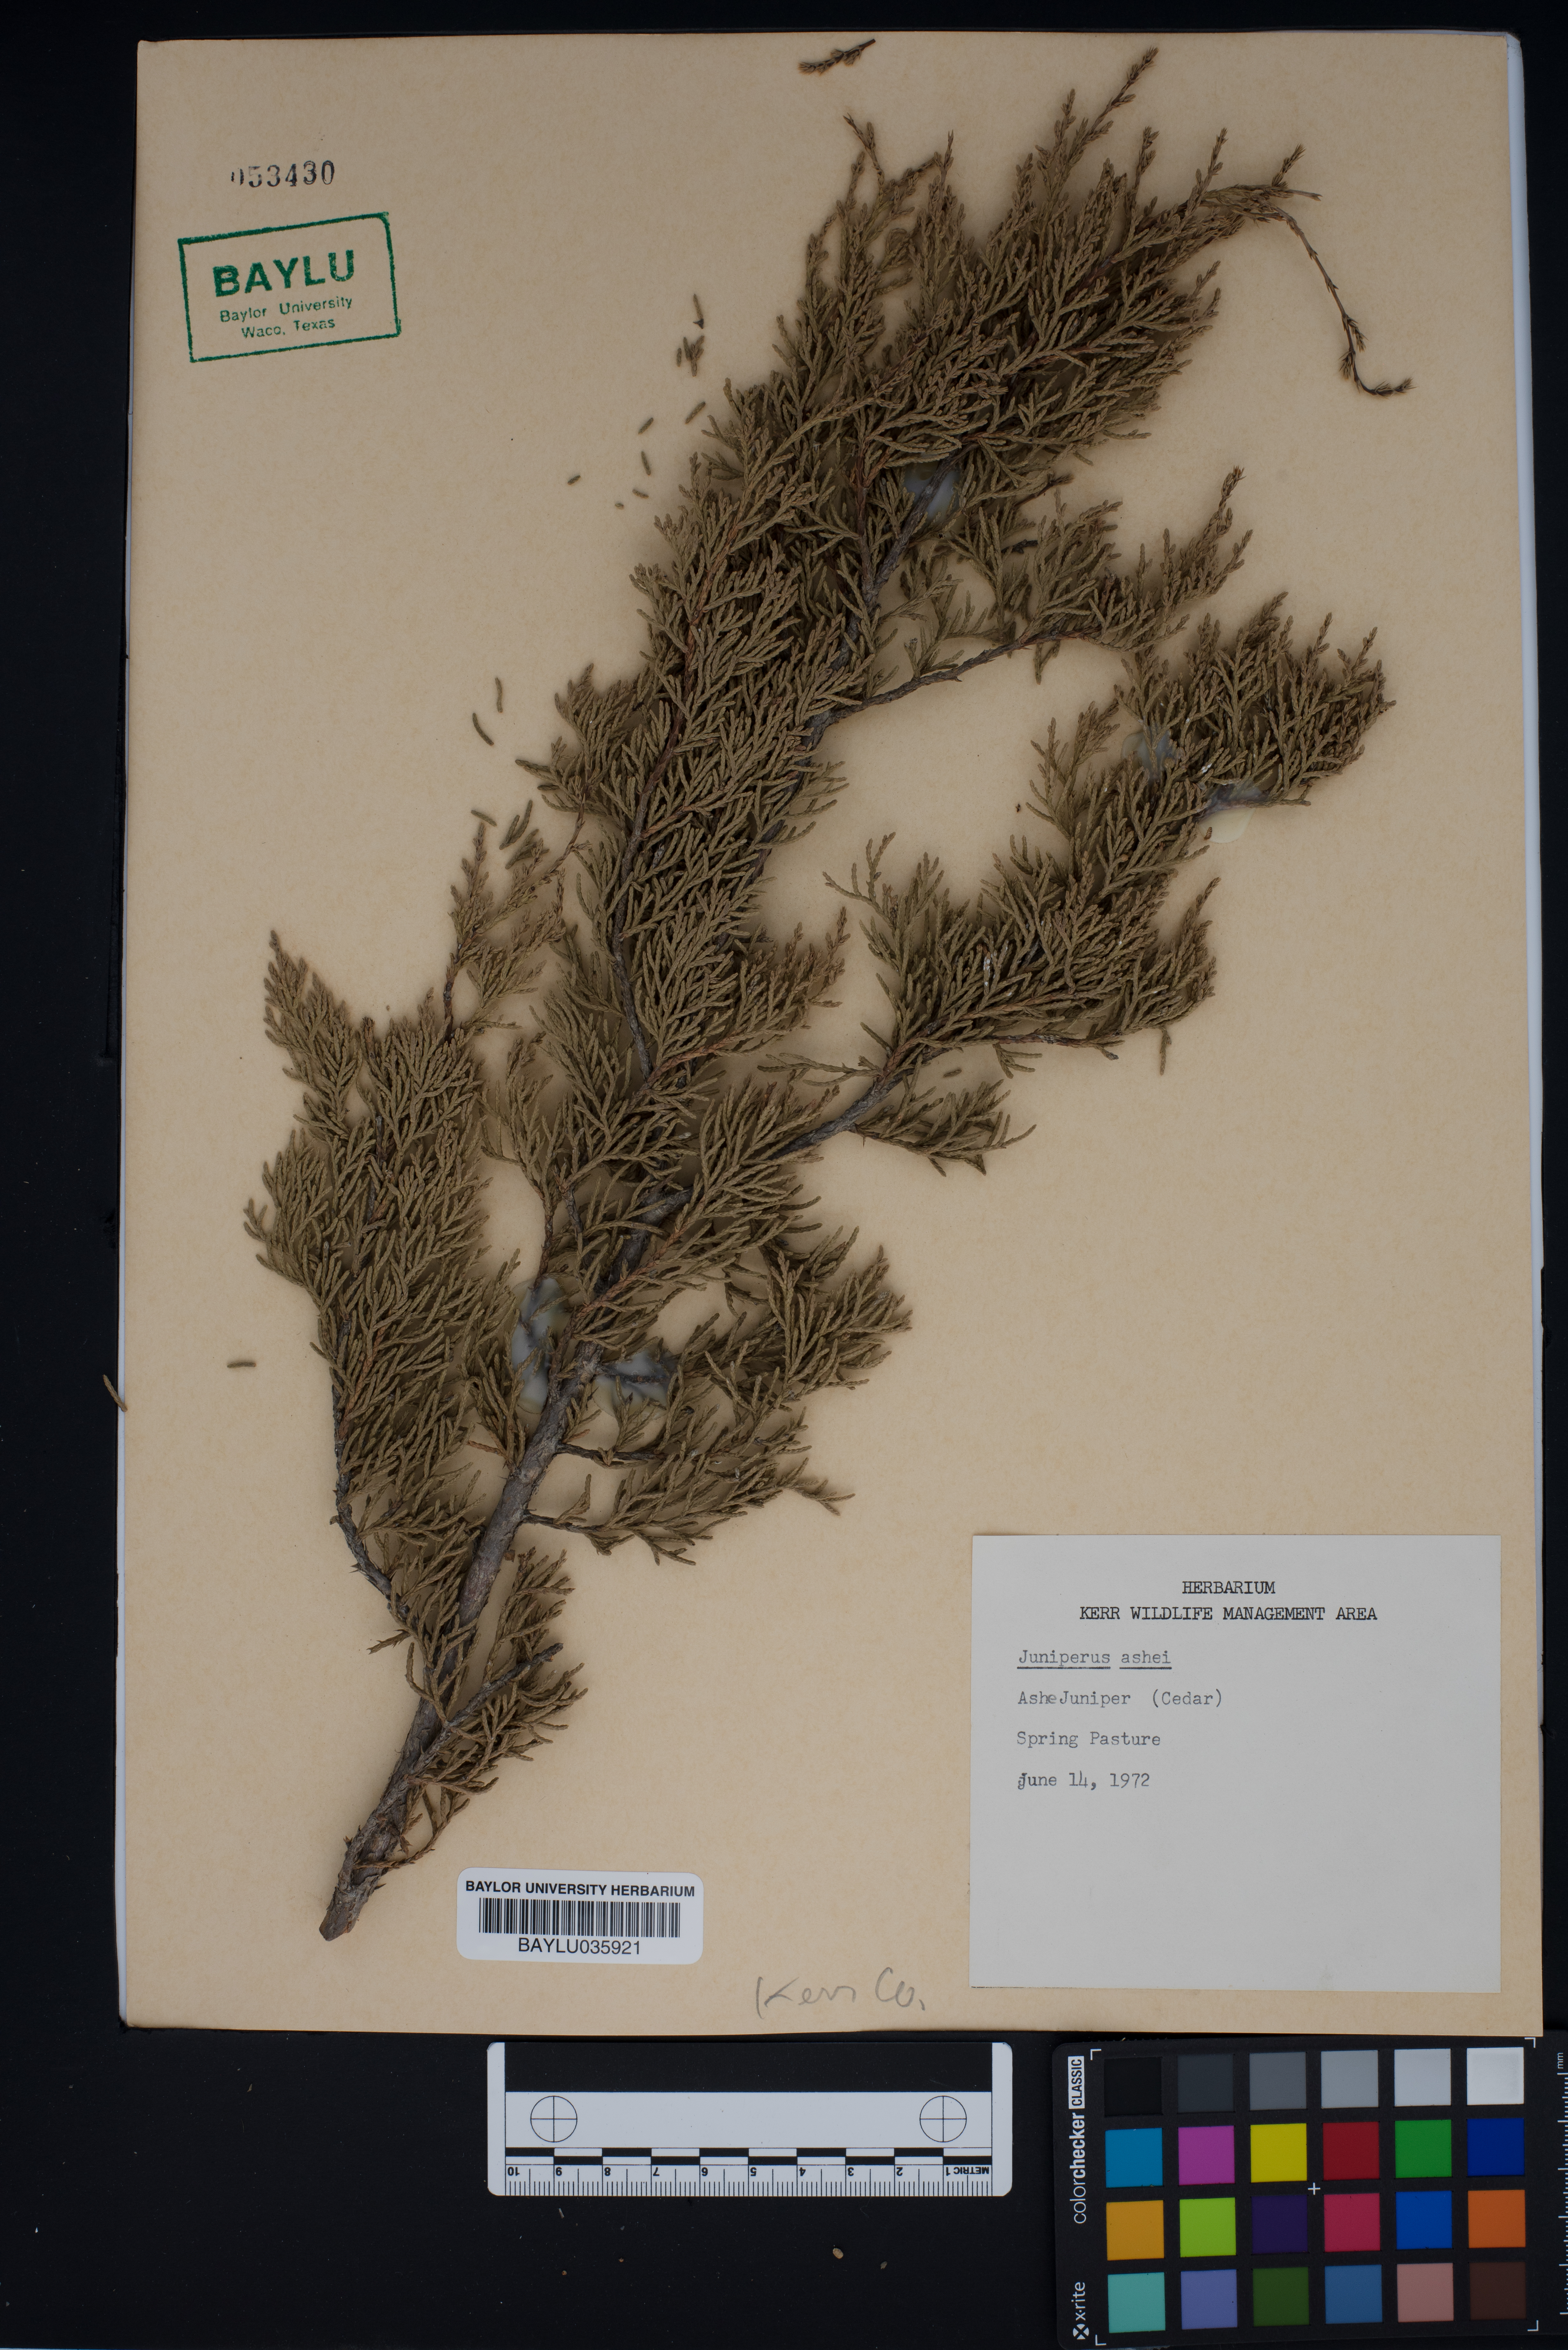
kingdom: Plantae
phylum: Tracheophyta
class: Pinopsida
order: Pinales
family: Cupressaceae
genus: Juniperus
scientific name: Juniperus ashei
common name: Mexican juniper
